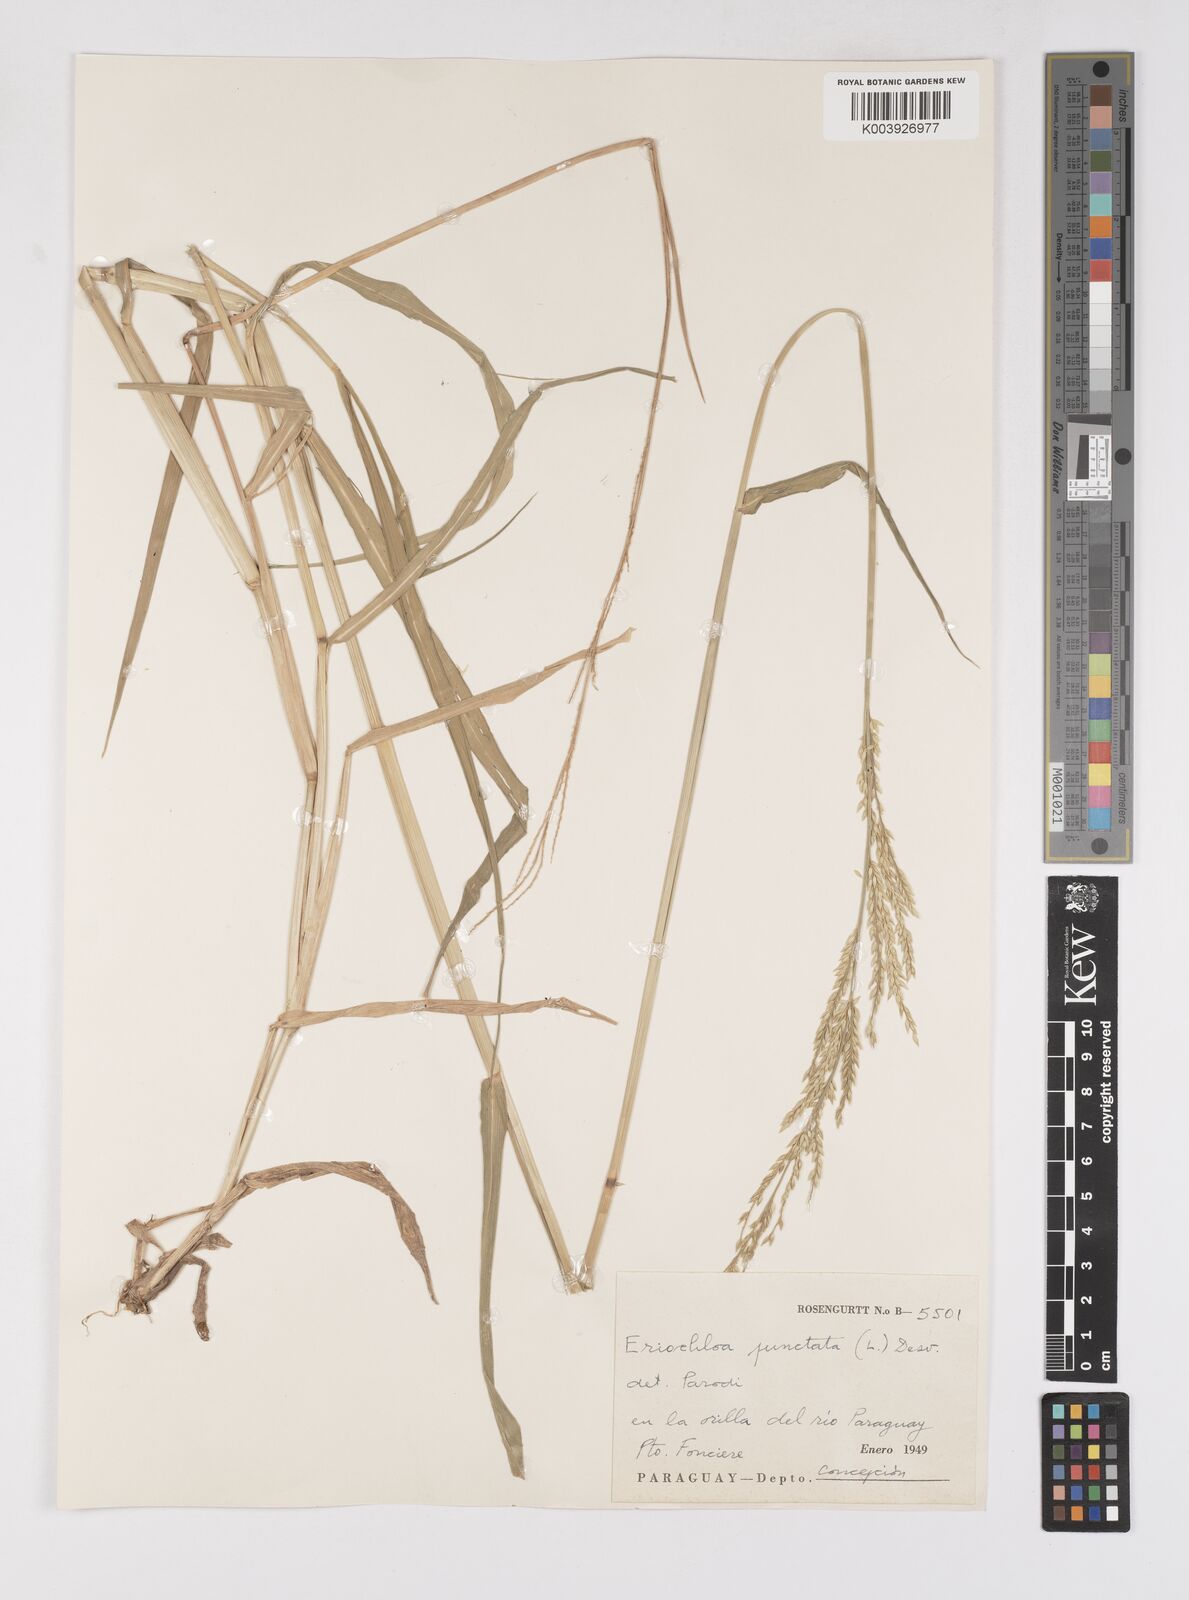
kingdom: Plantae
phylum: Tracheophyta
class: Liliopsida
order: Poales
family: Poaceae
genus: Eriochloa
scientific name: Eriochloa punctata
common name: Louisiana cupgrass
